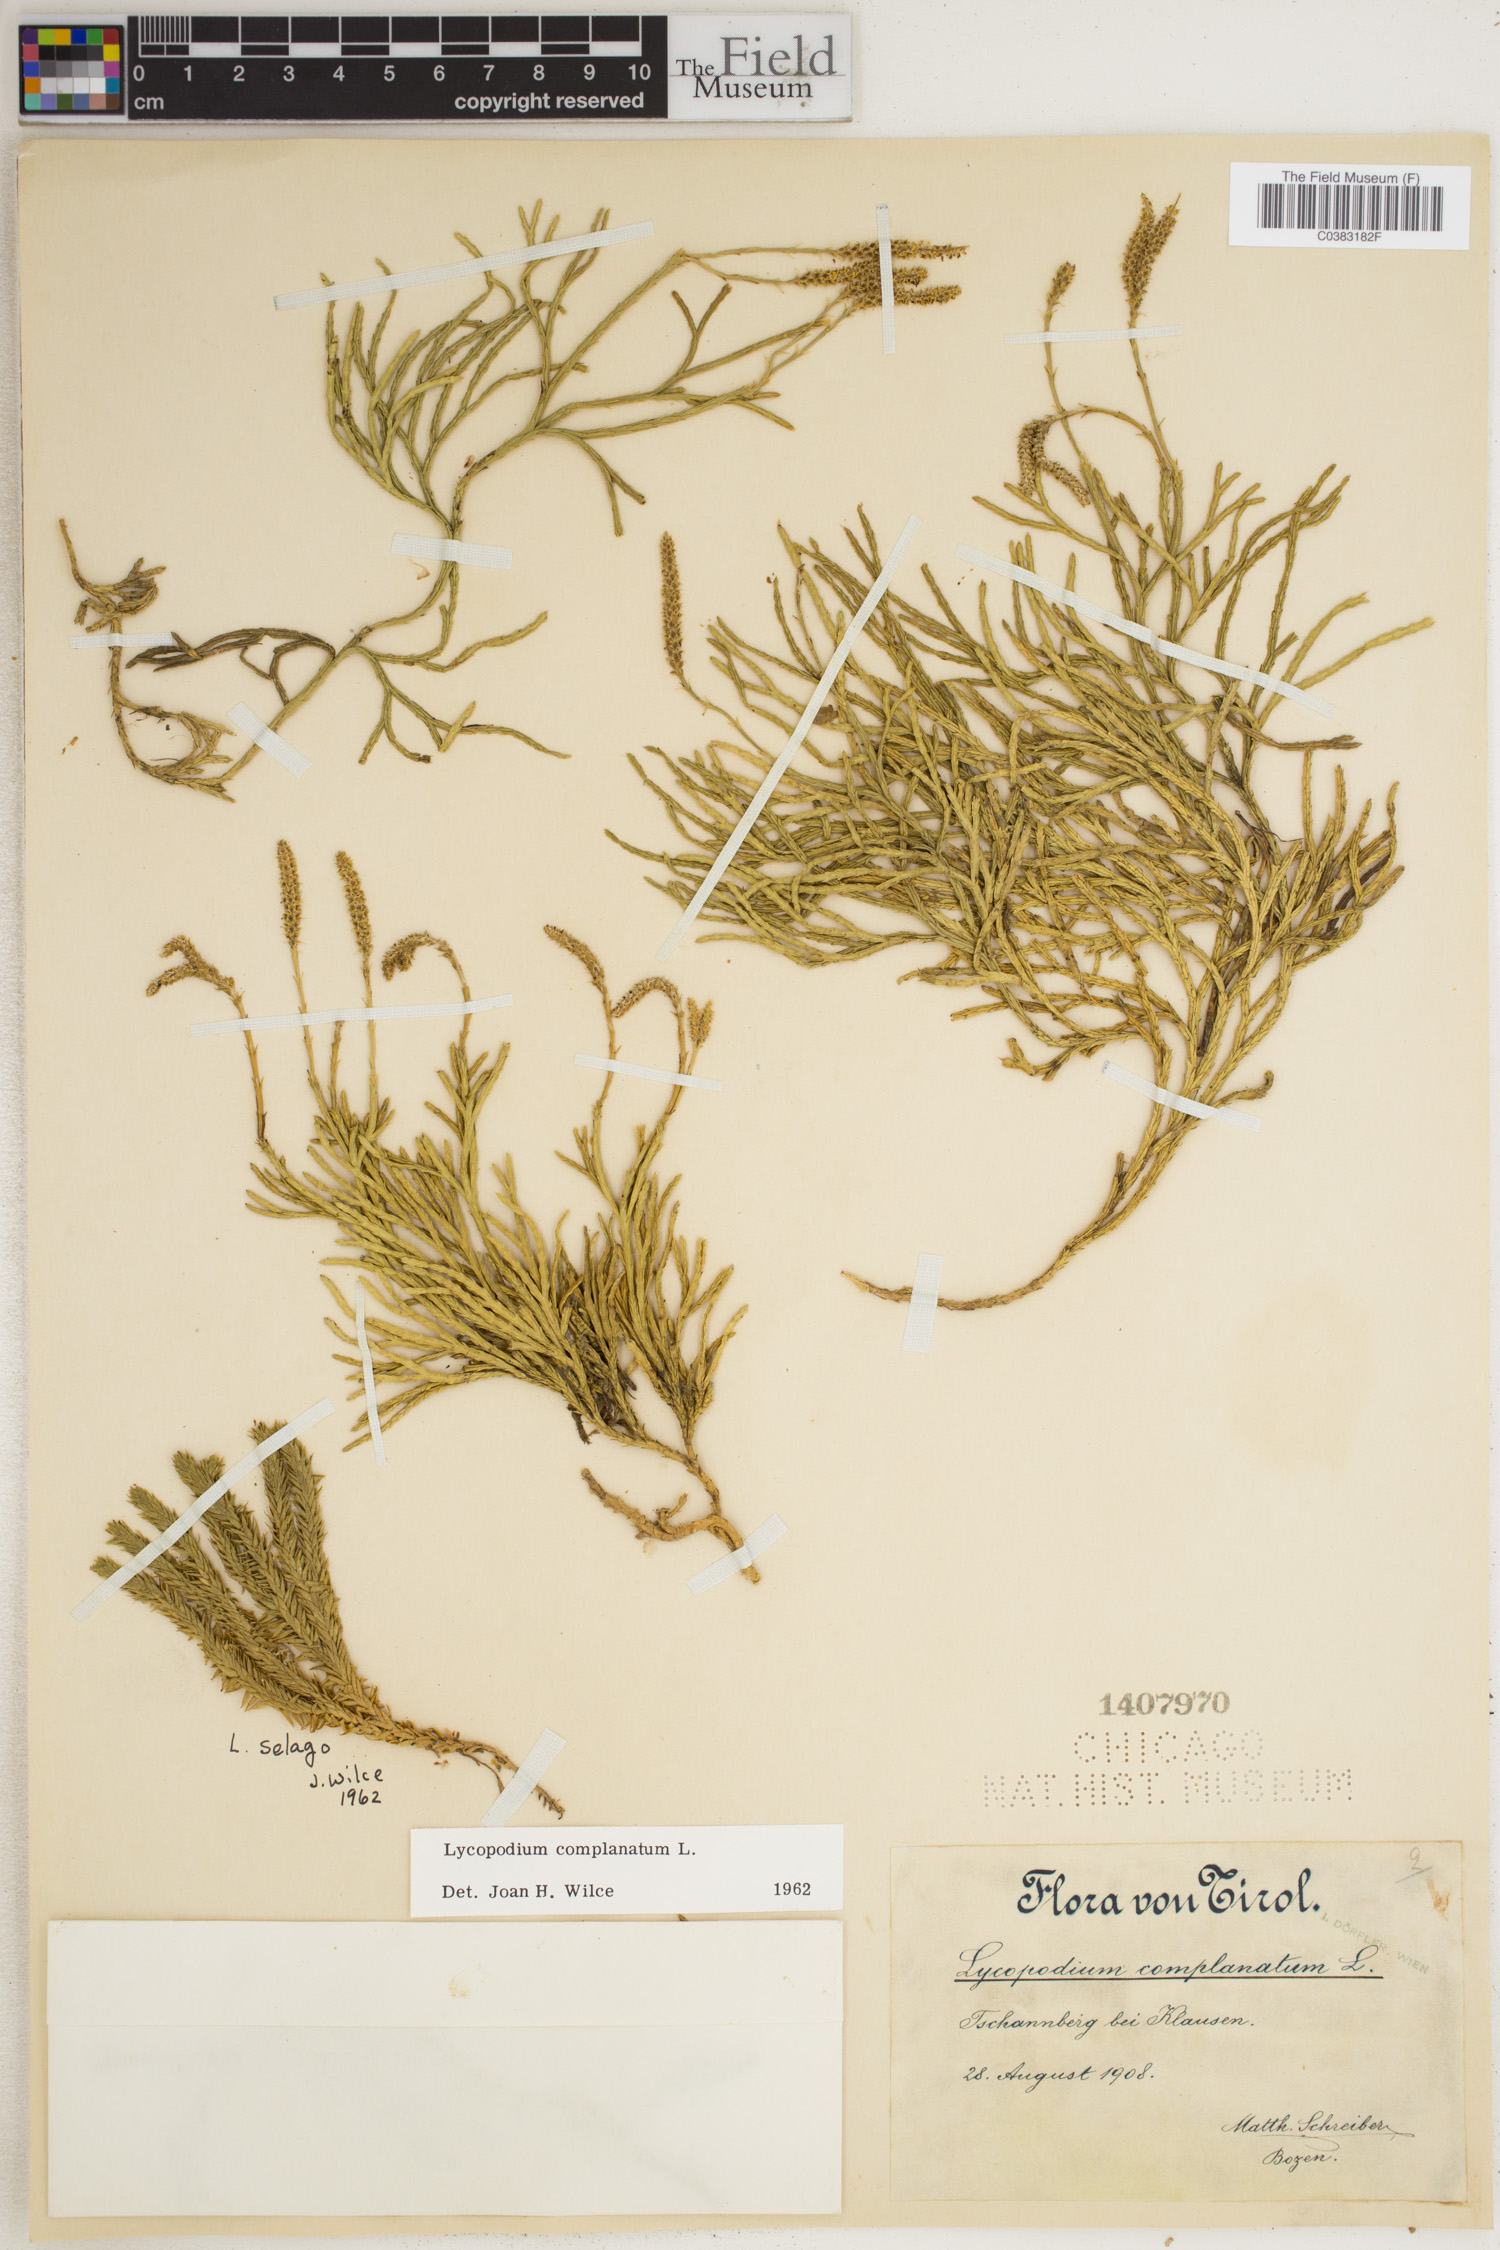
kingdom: Plantae
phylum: Tracheophyta
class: Lycopodiopsida
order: Lycopodiales
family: Lycopodiaceae
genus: Diphasiastrum
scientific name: Diphasiastrum complanatum
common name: Northern running-pine
